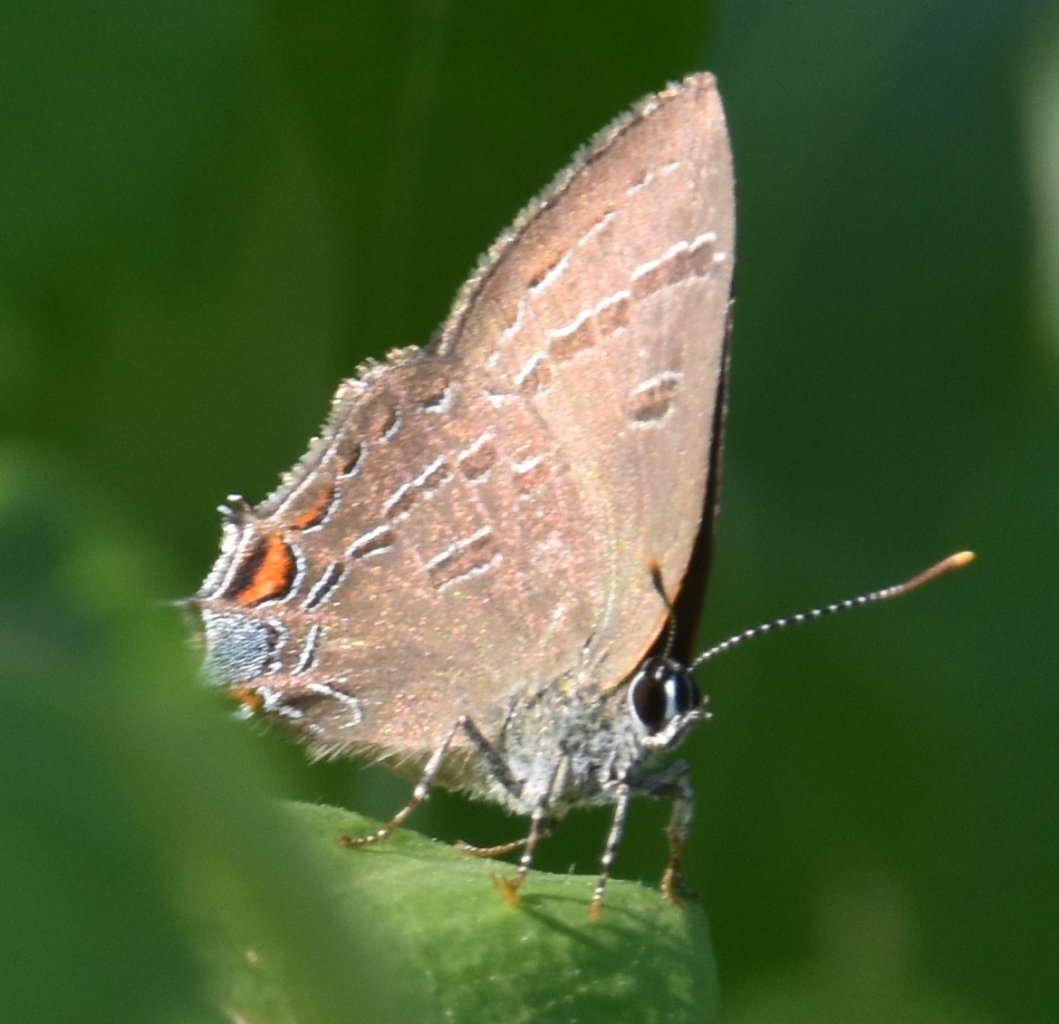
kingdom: Animalia
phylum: Arthropoda
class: Insecta
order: Lepidoptera
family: Lycaenidae
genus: Satyrium
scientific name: Satyrium calanus
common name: Banded Hairstreak
